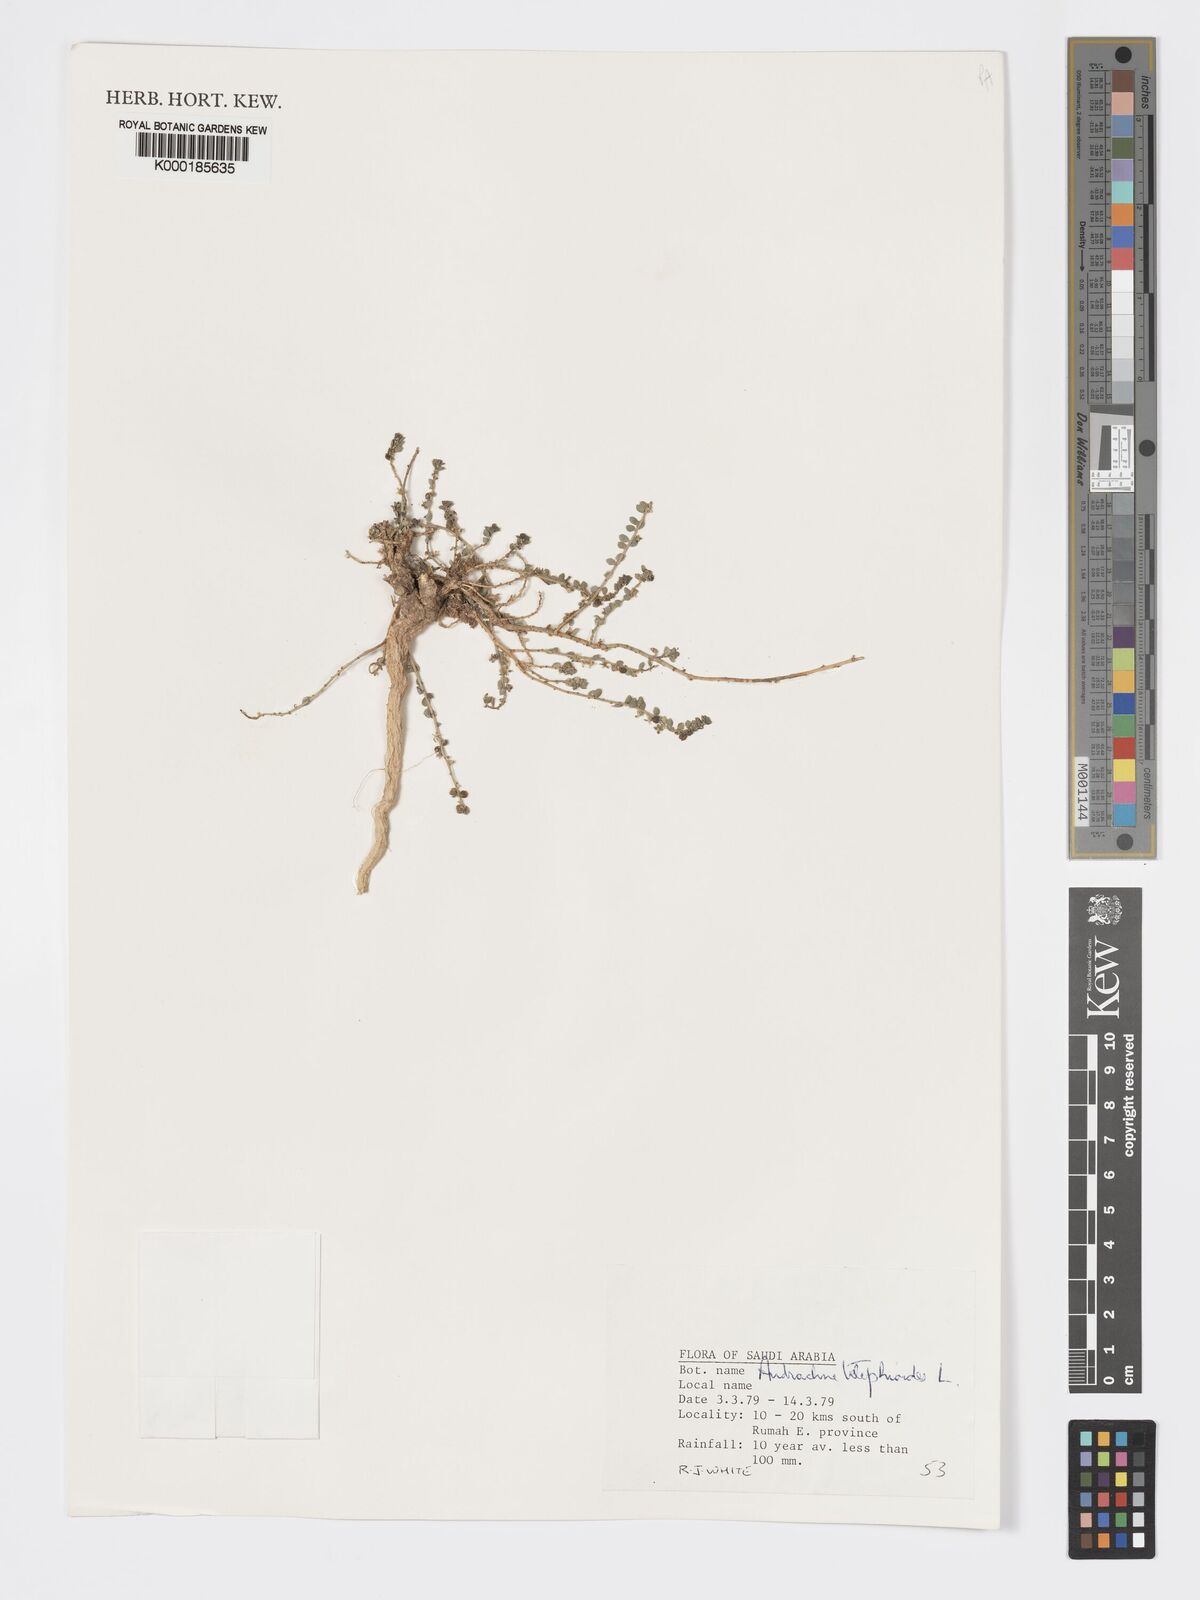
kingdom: Plantae
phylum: Tracheophyta
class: Magnoliopsida
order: Malpighiales
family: Phyllanthaceae
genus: Andrachne
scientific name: Andrachne telephioides
